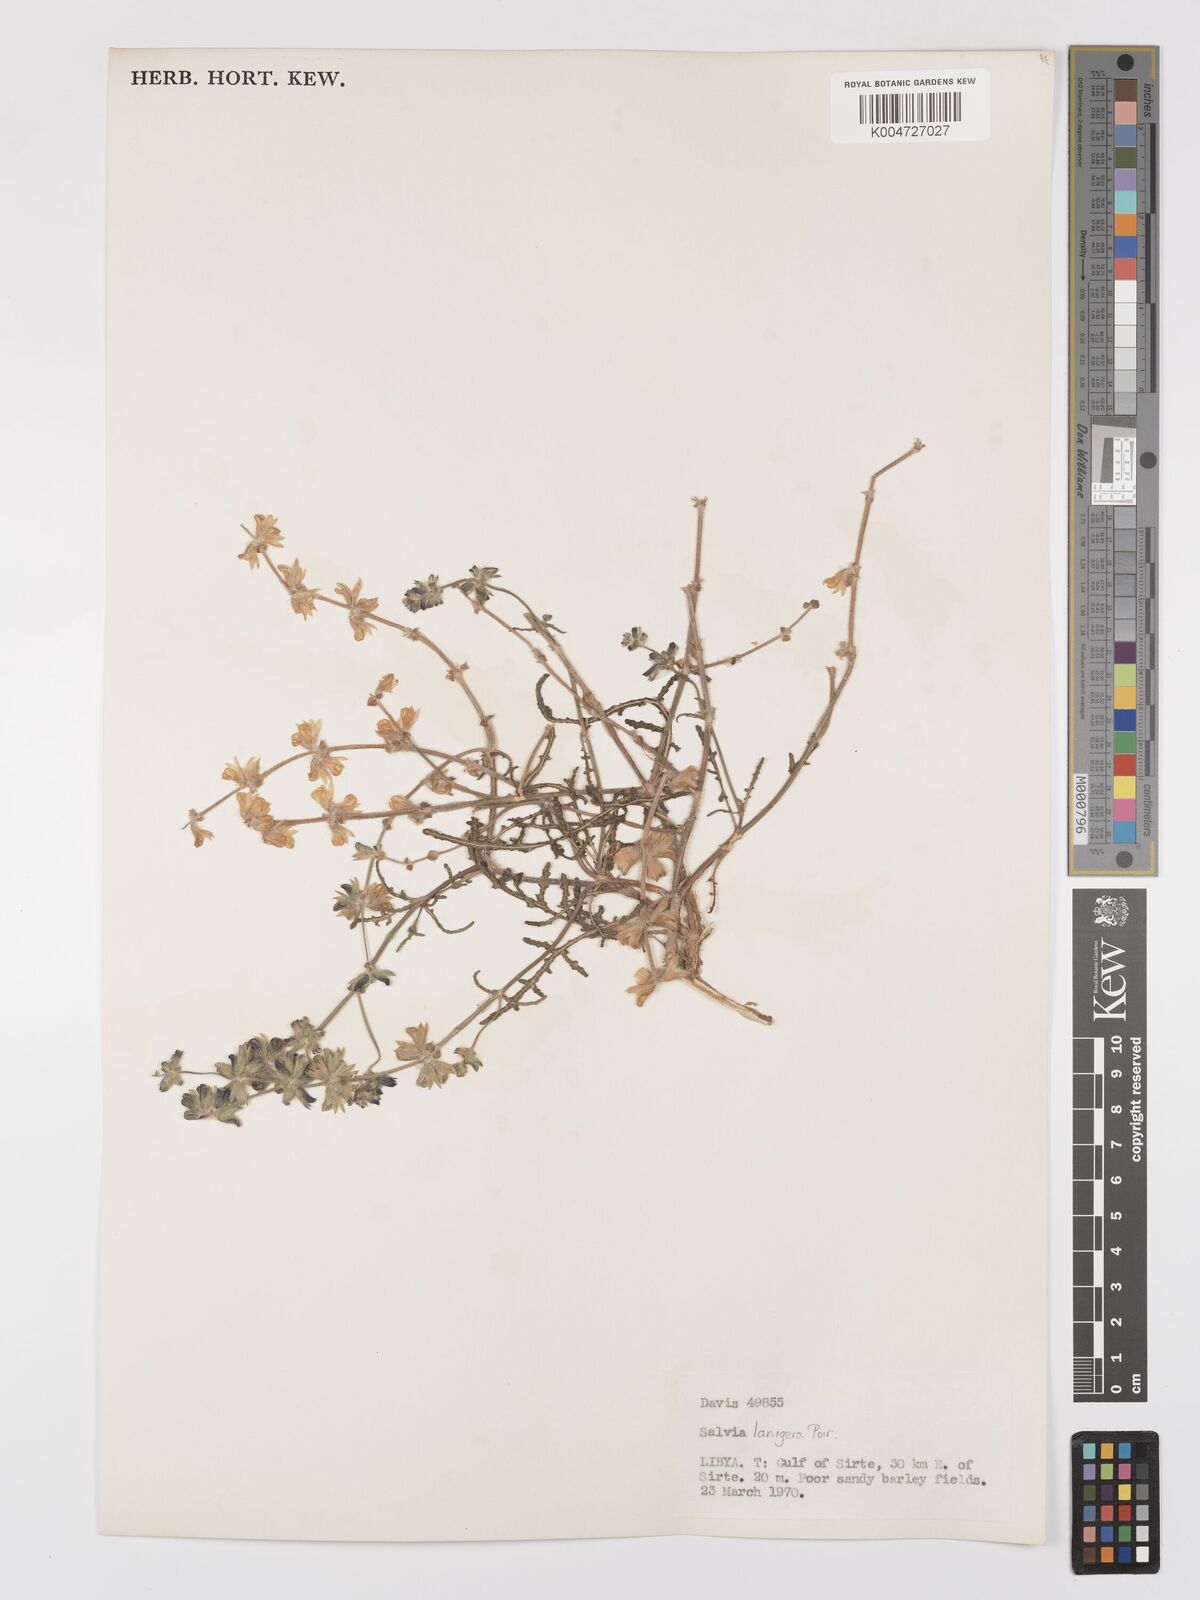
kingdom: Plantae
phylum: Tracheophyta
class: Magnoliopsida
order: Lamiales
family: Lamiaceae
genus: Salvia
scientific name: Salvia lanigera
